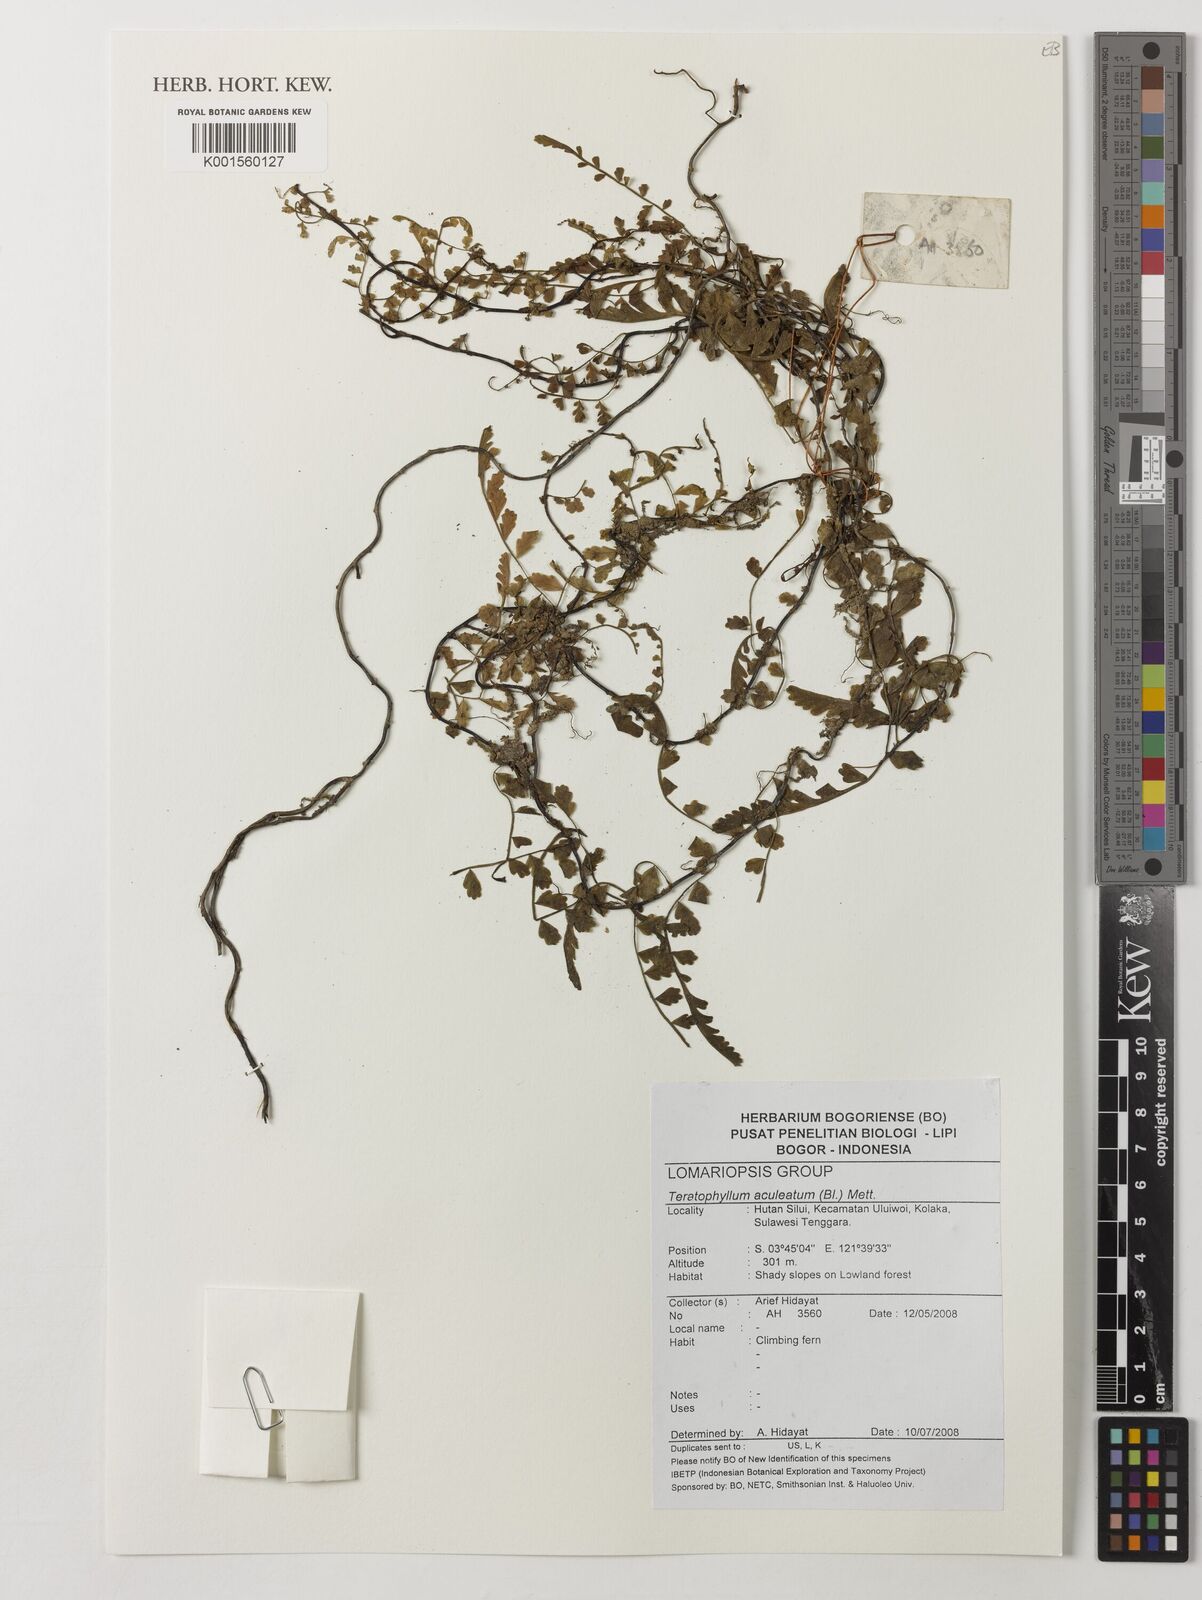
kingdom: Plantae
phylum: Tracheophyta
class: Polypodiopsida
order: Polypodiales
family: Dryopteridaceae
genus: Teratophyllum
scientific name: Teratophyllum aculeatum
